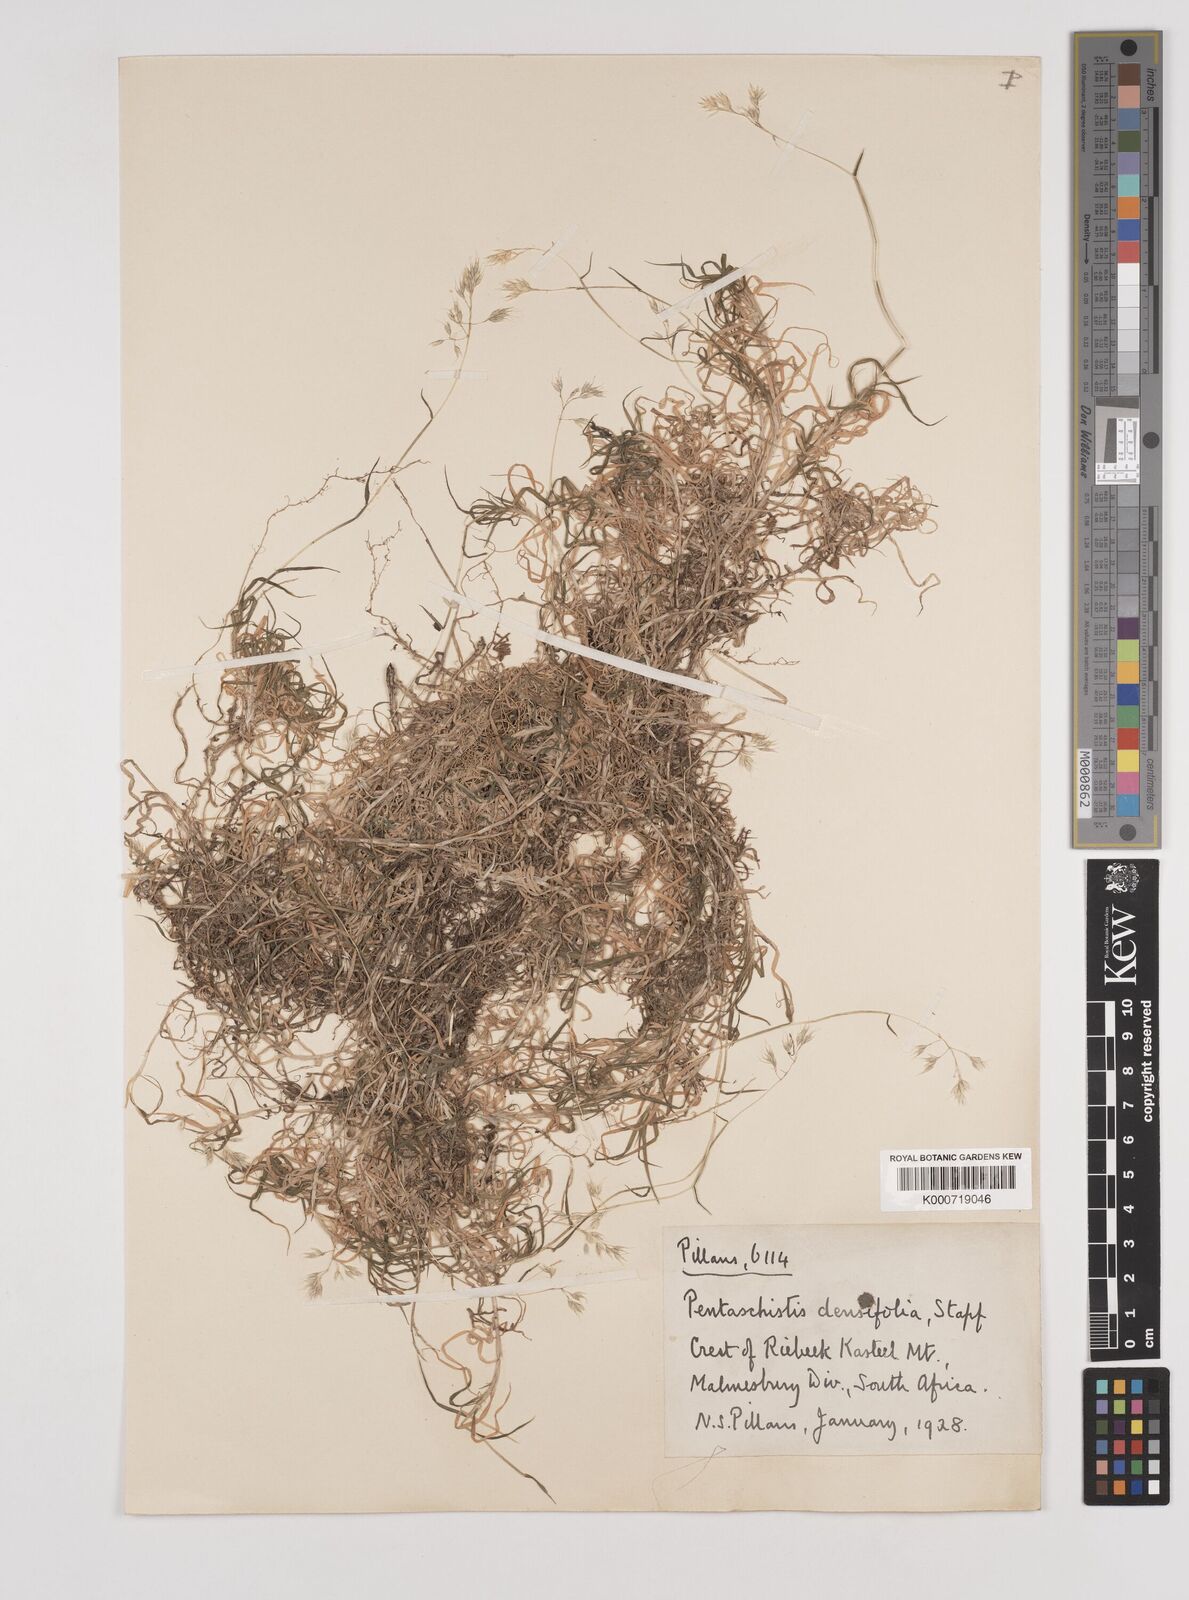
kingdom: Plantae
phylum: Tracheophyta
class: Liliopsida
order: Poales
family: Poaceae
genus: Pentameris
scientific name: Pentameris densifolia
